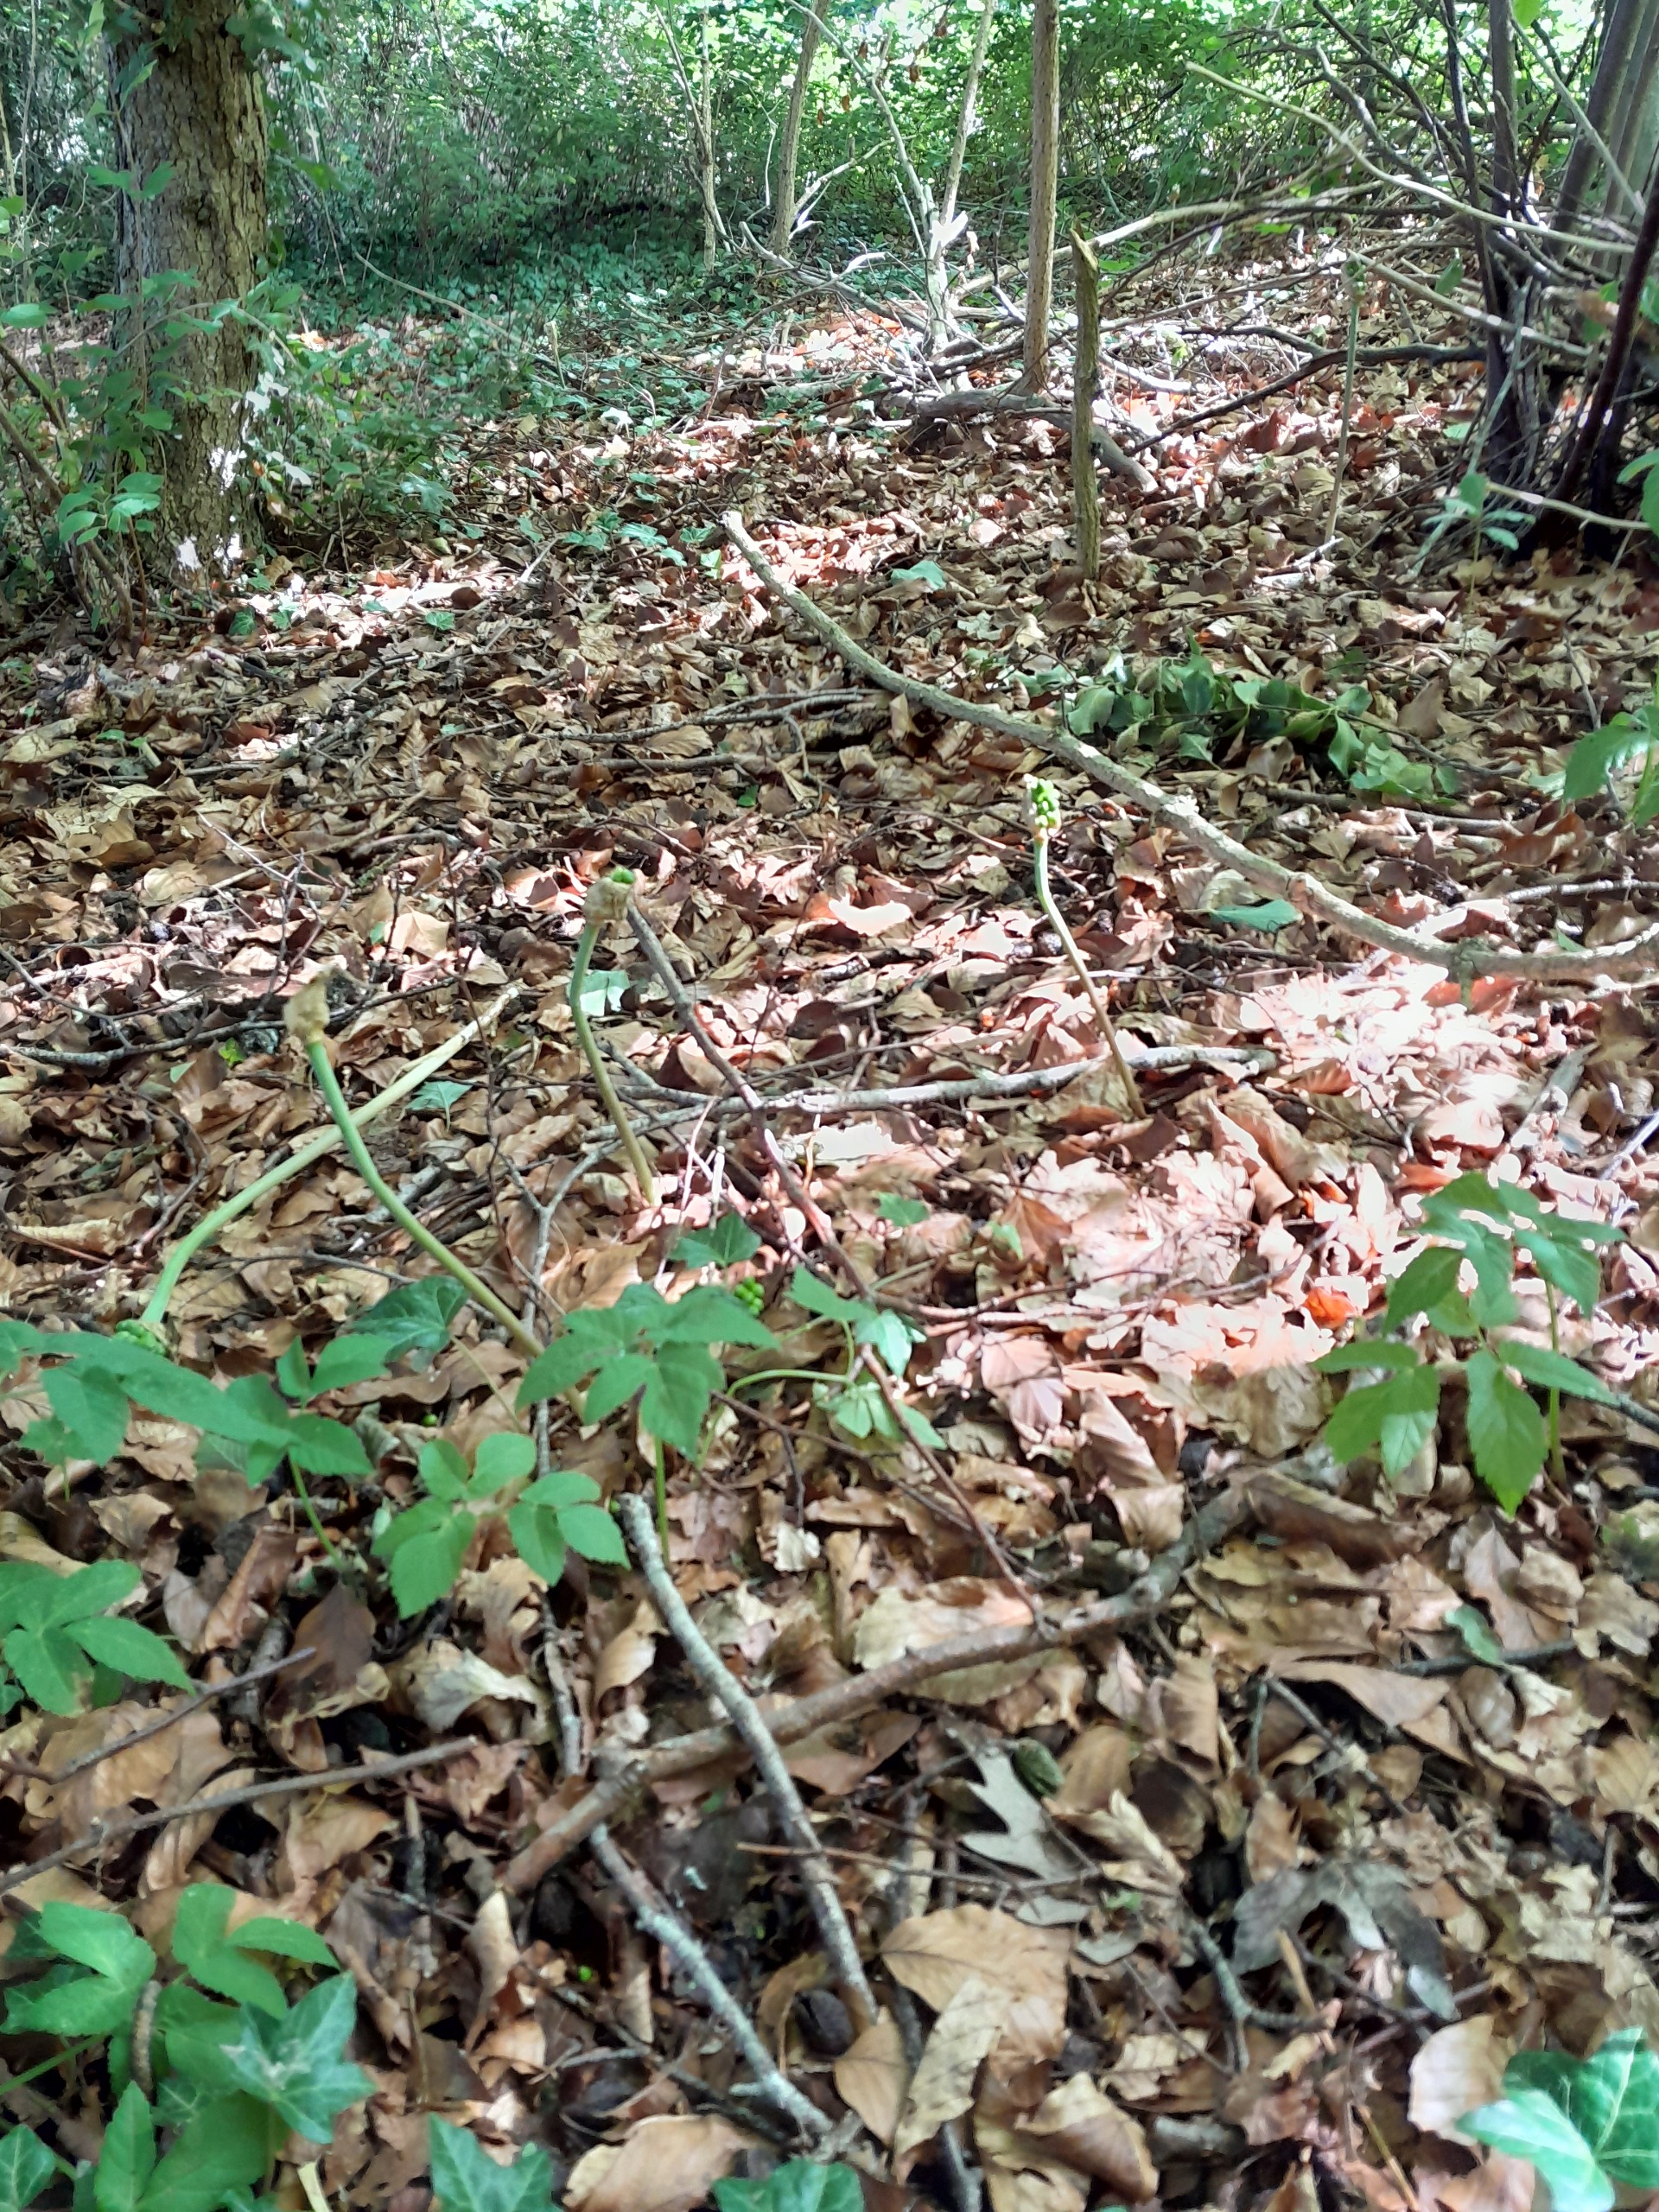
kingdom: Plantae
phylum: Tracheophyta
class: Liliopsida
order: Alismatales
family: Araceae
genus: Arum
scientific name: Arum
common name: Arumslægten
